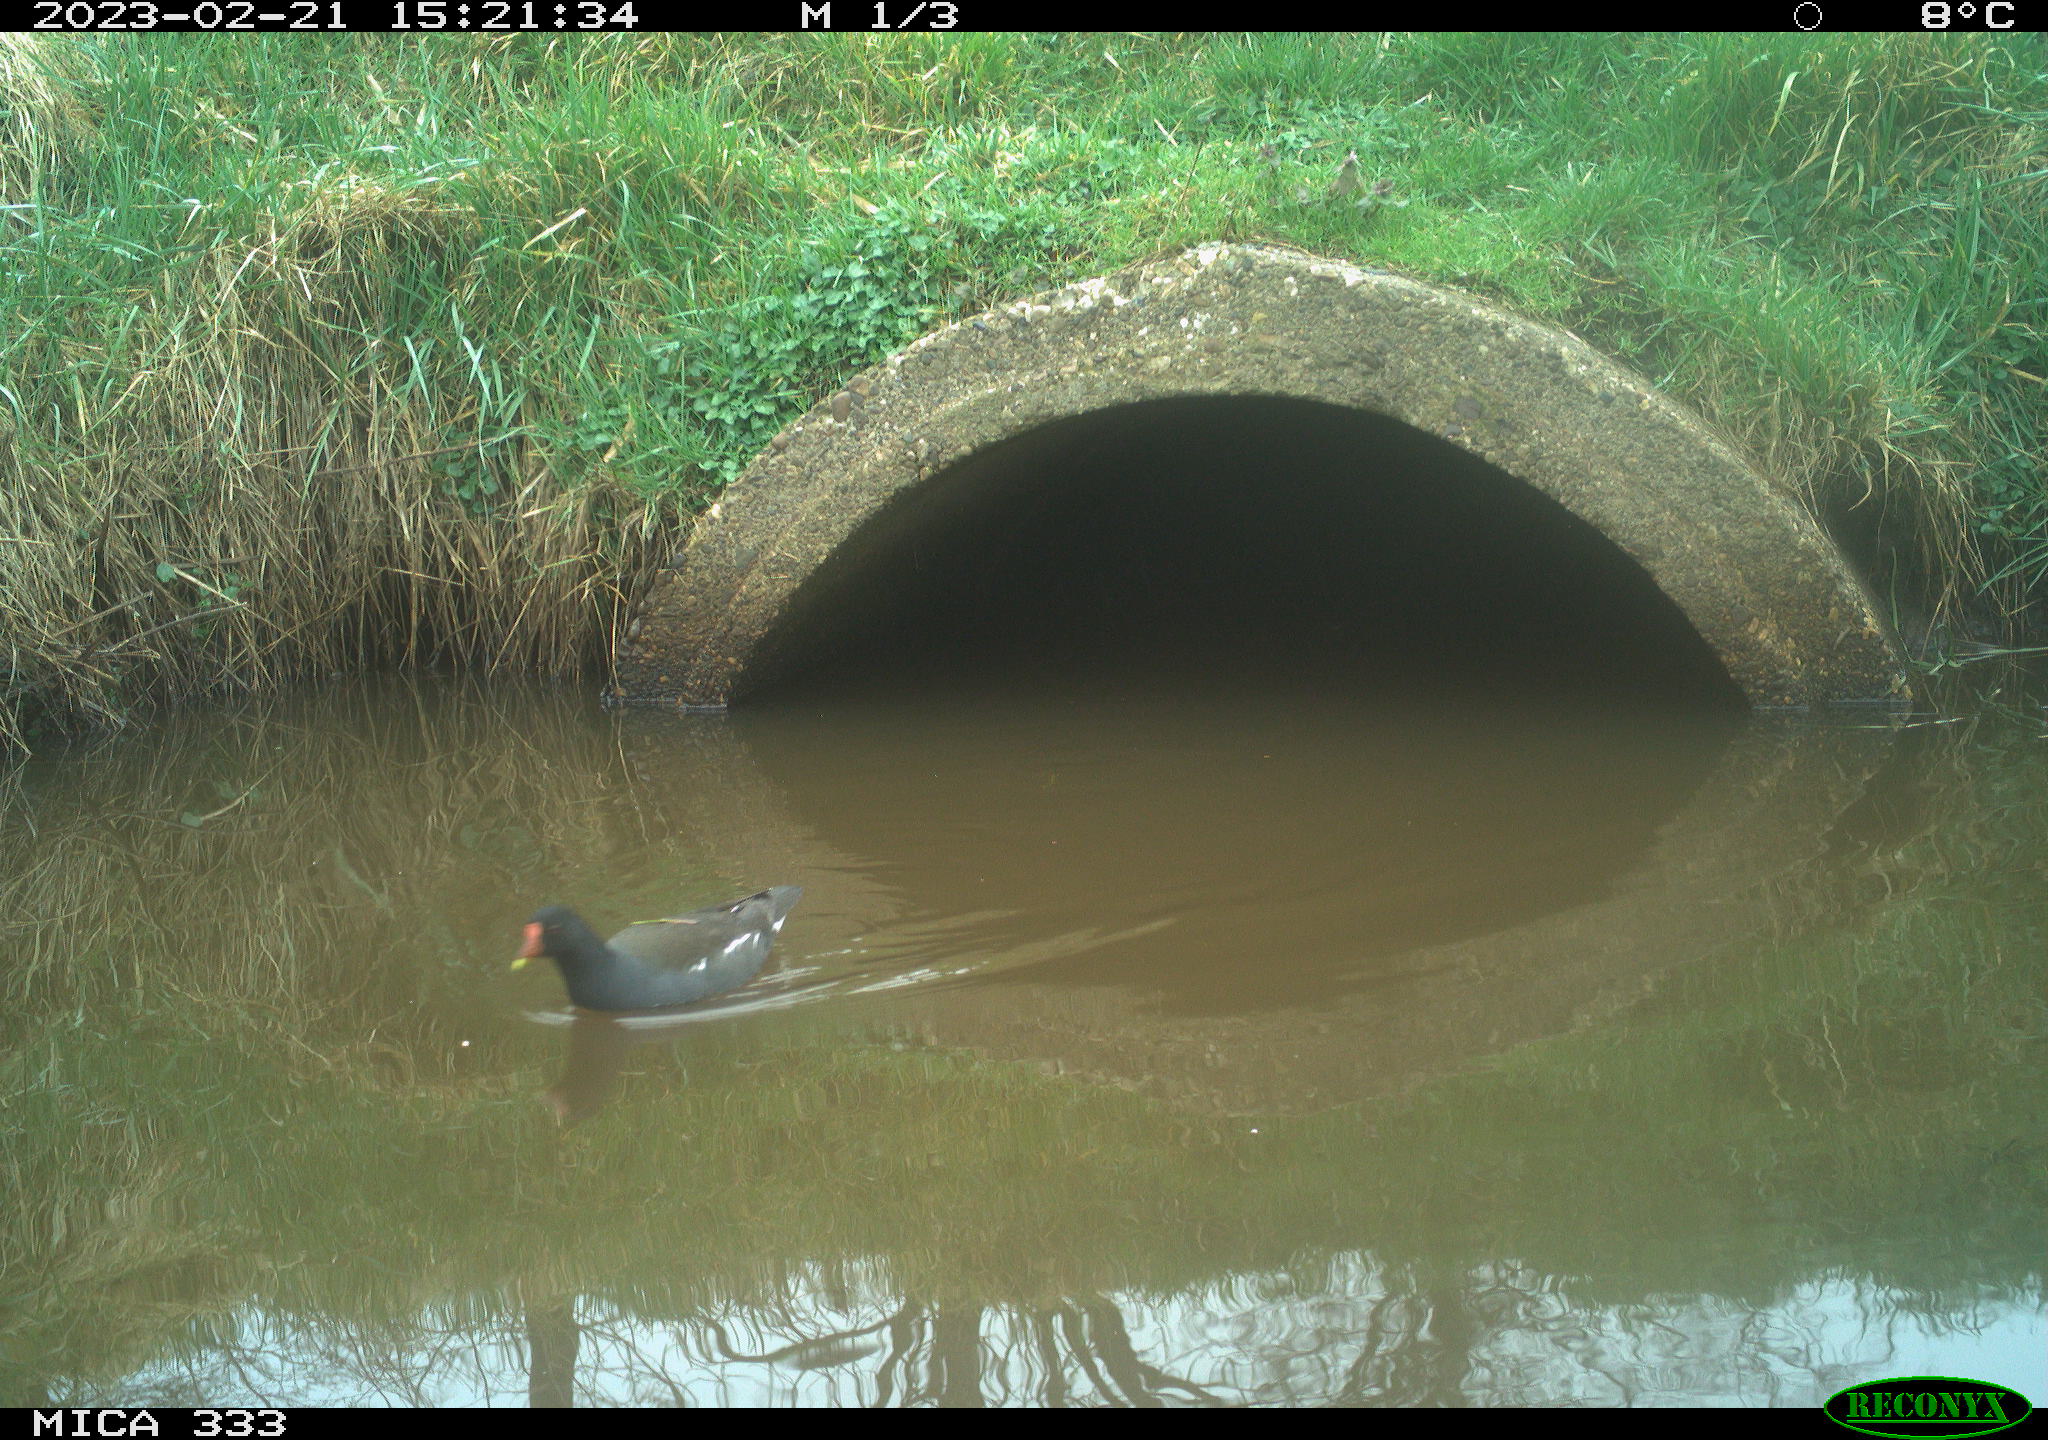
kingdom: Animalia
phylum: Chordata
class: Aves
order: Gruiformes
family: Rallidae
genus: Gallinula
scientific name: Gallinula chloropus
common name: Common moorhen
